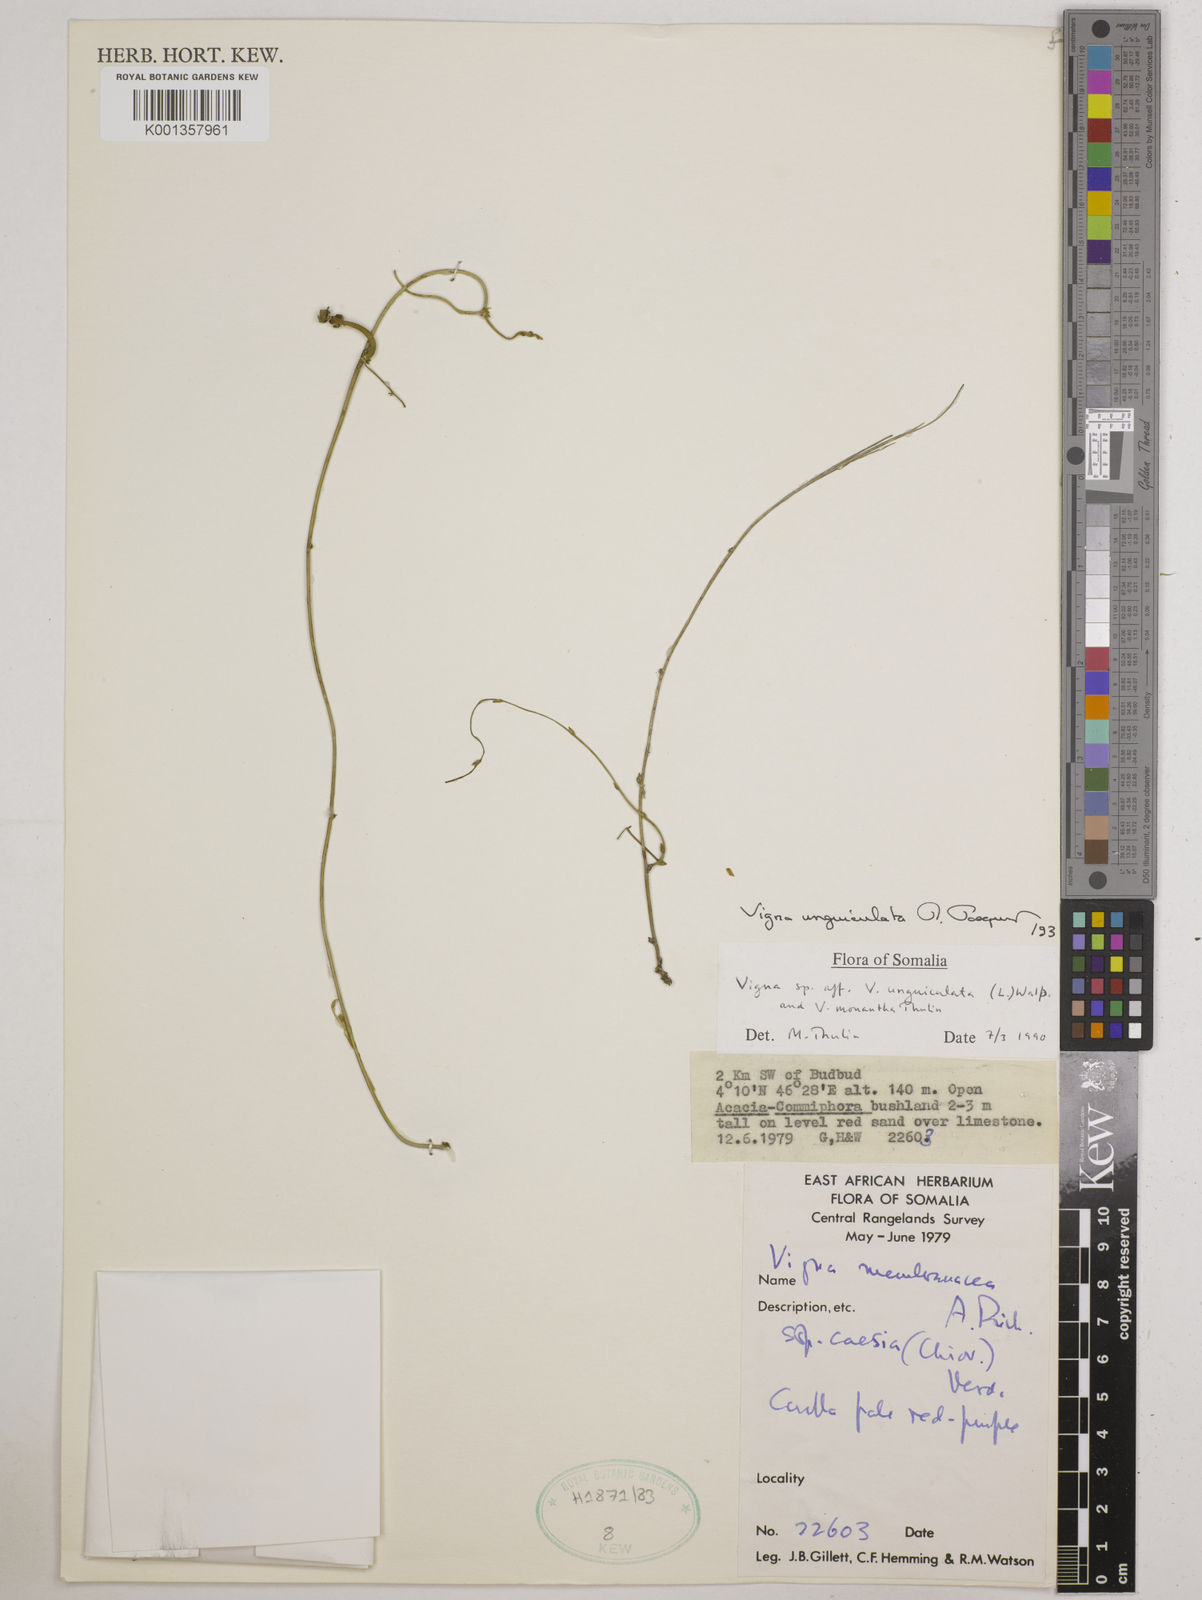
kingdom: Plantae
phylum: Tracheophyta
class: Magnoliopsida
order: Fabales
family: Fabaceae
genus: Vigna
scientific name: Vigna unguiculata
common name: Cowpea
